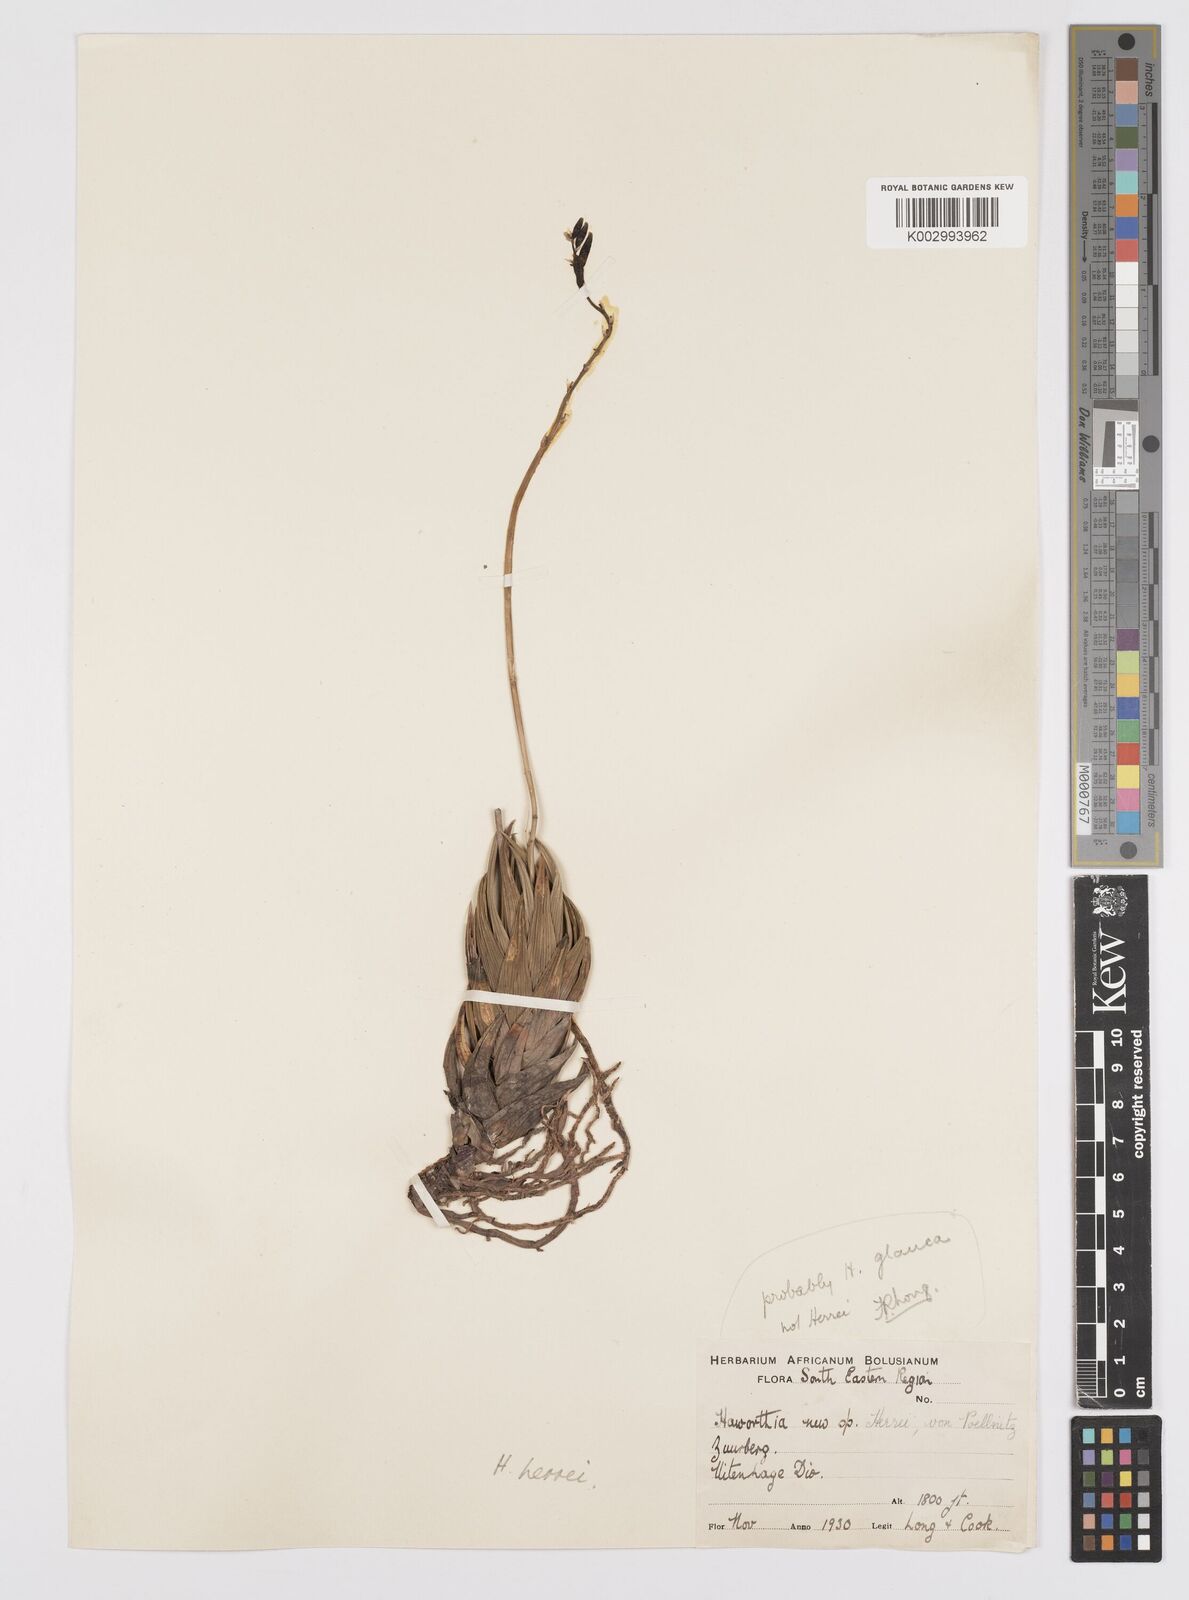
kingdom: Plantae
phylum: Tracheophyta
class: Liliopsida
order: Asparagales
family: Asphodelaceae
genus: Haworthiopsis
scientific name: Haworthiopsis glauca
